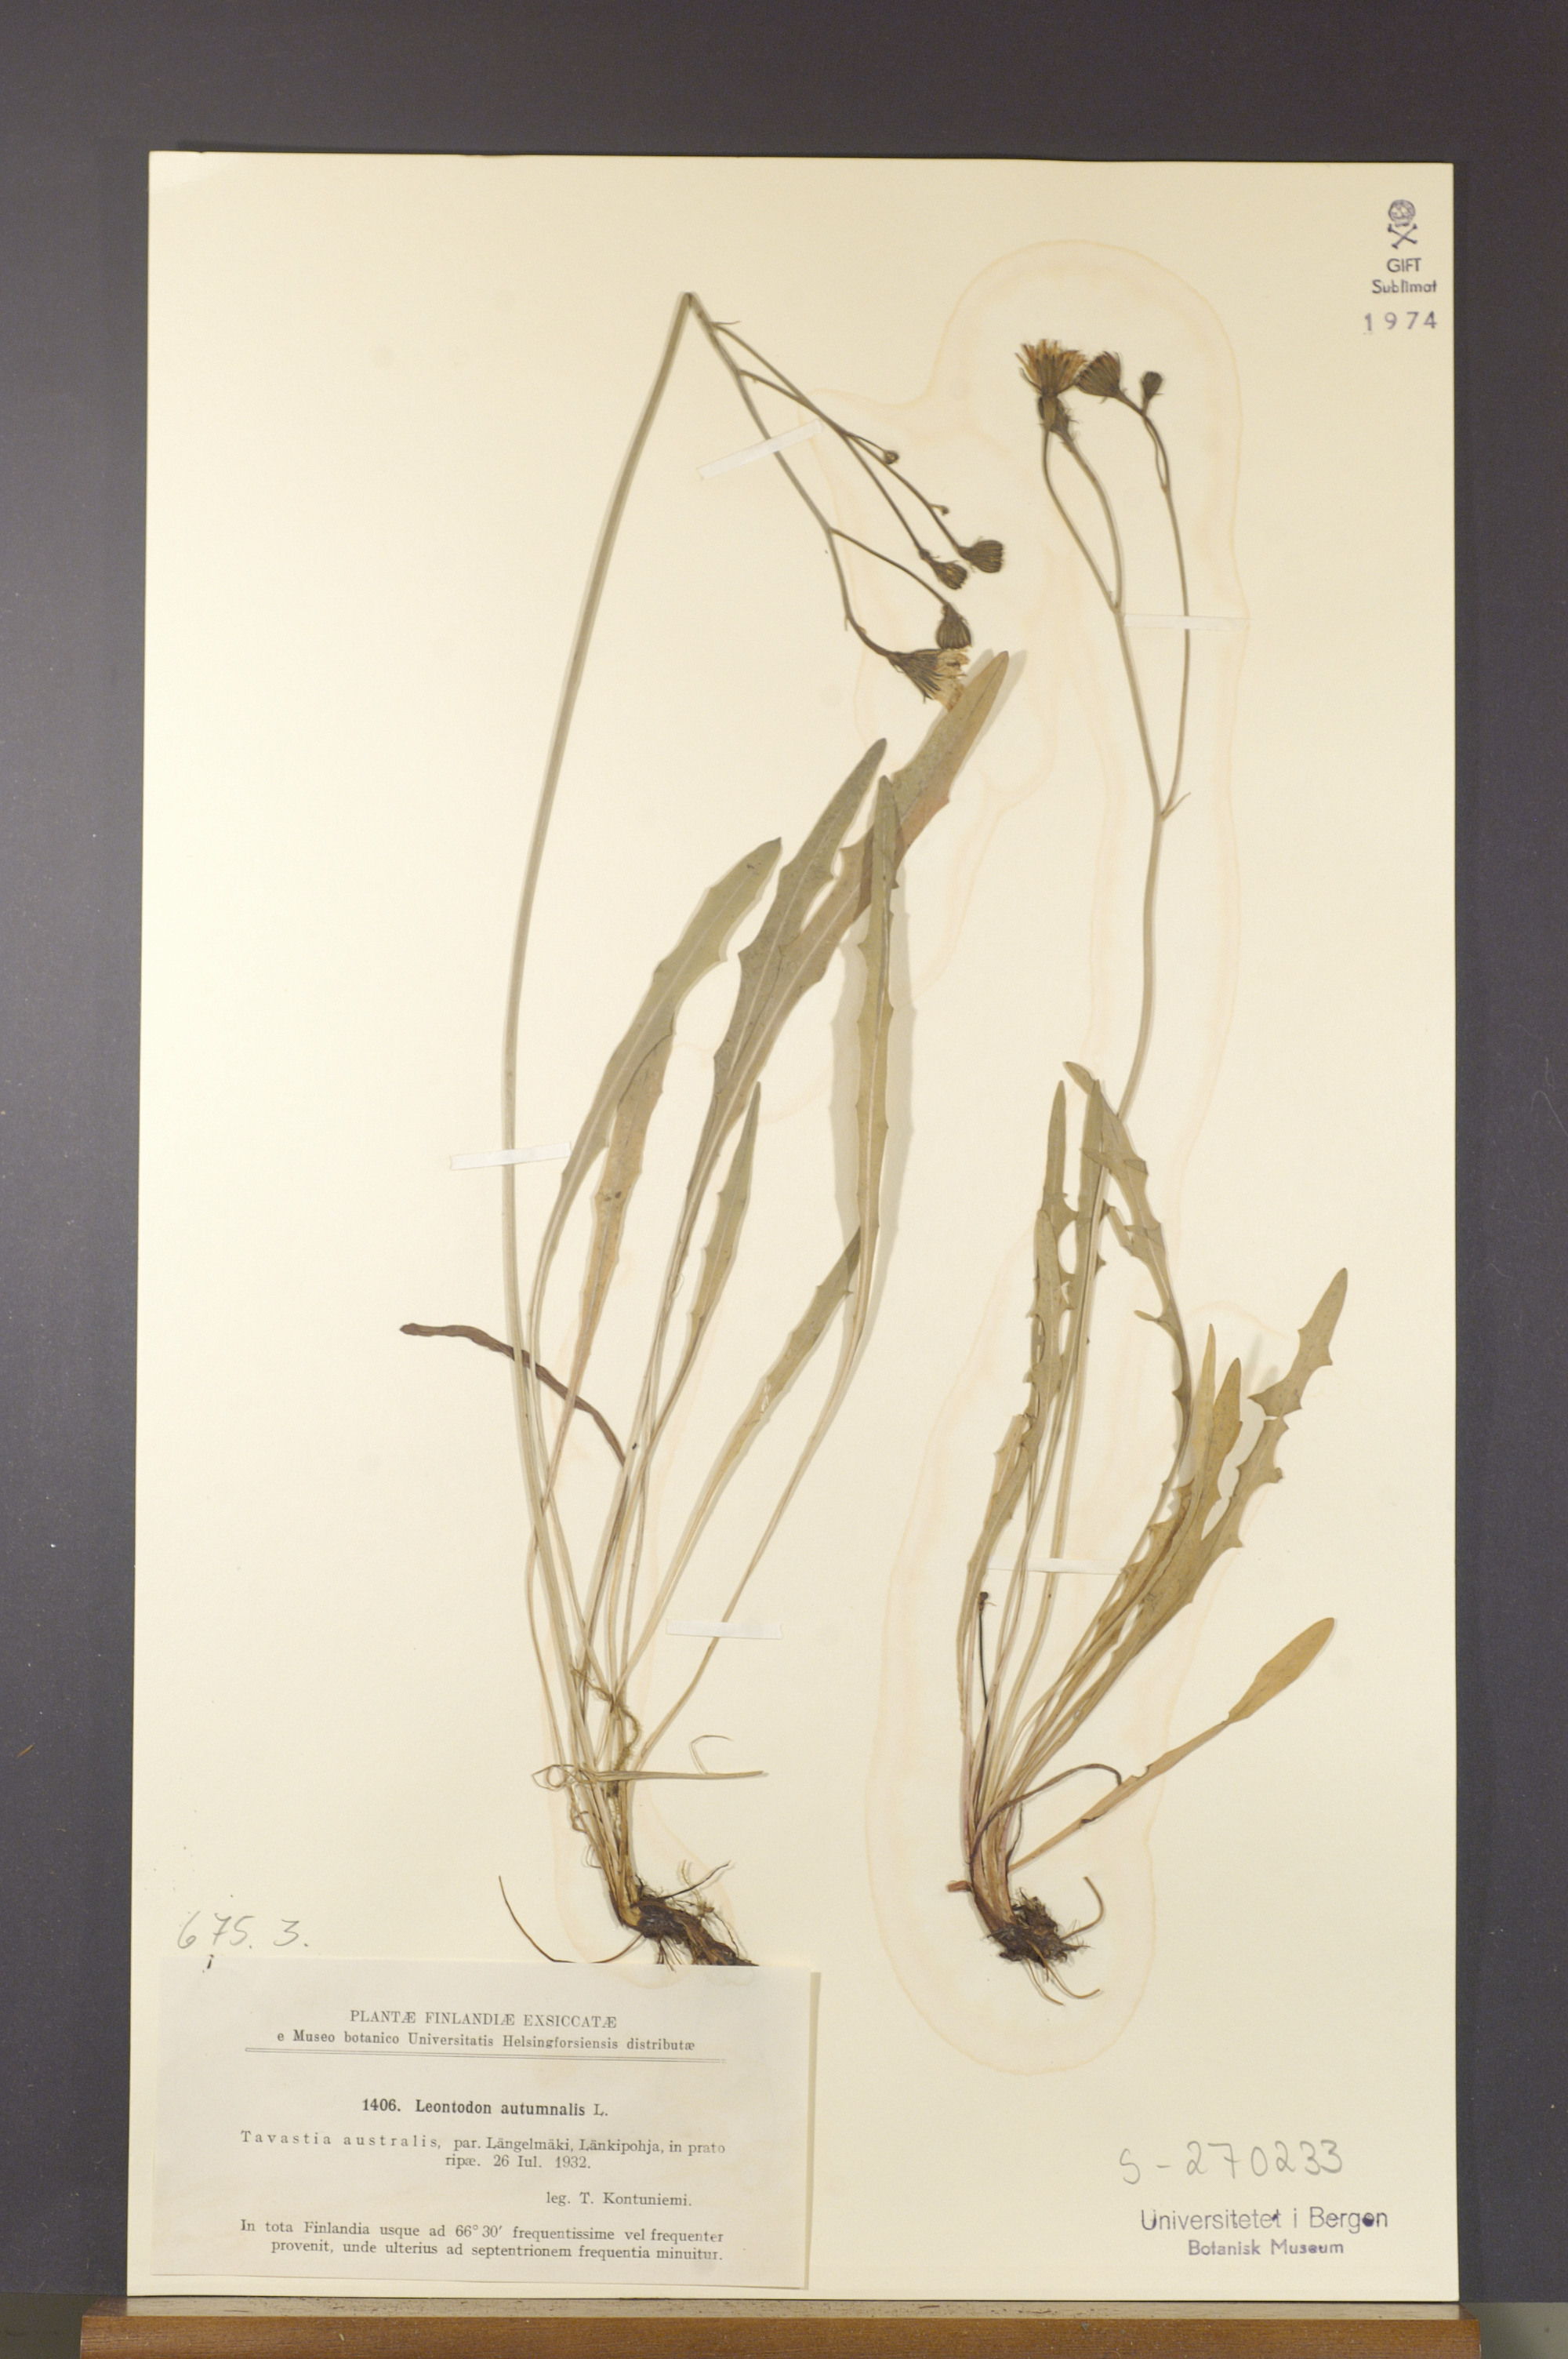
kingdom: Plantae
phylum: Tracheophyta
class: Magnoliopsida
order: Asterales
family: Asteraceae
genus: Scorzoneroides
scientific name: Scorzoneroides autumnalis
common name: Autumn hawkbit
